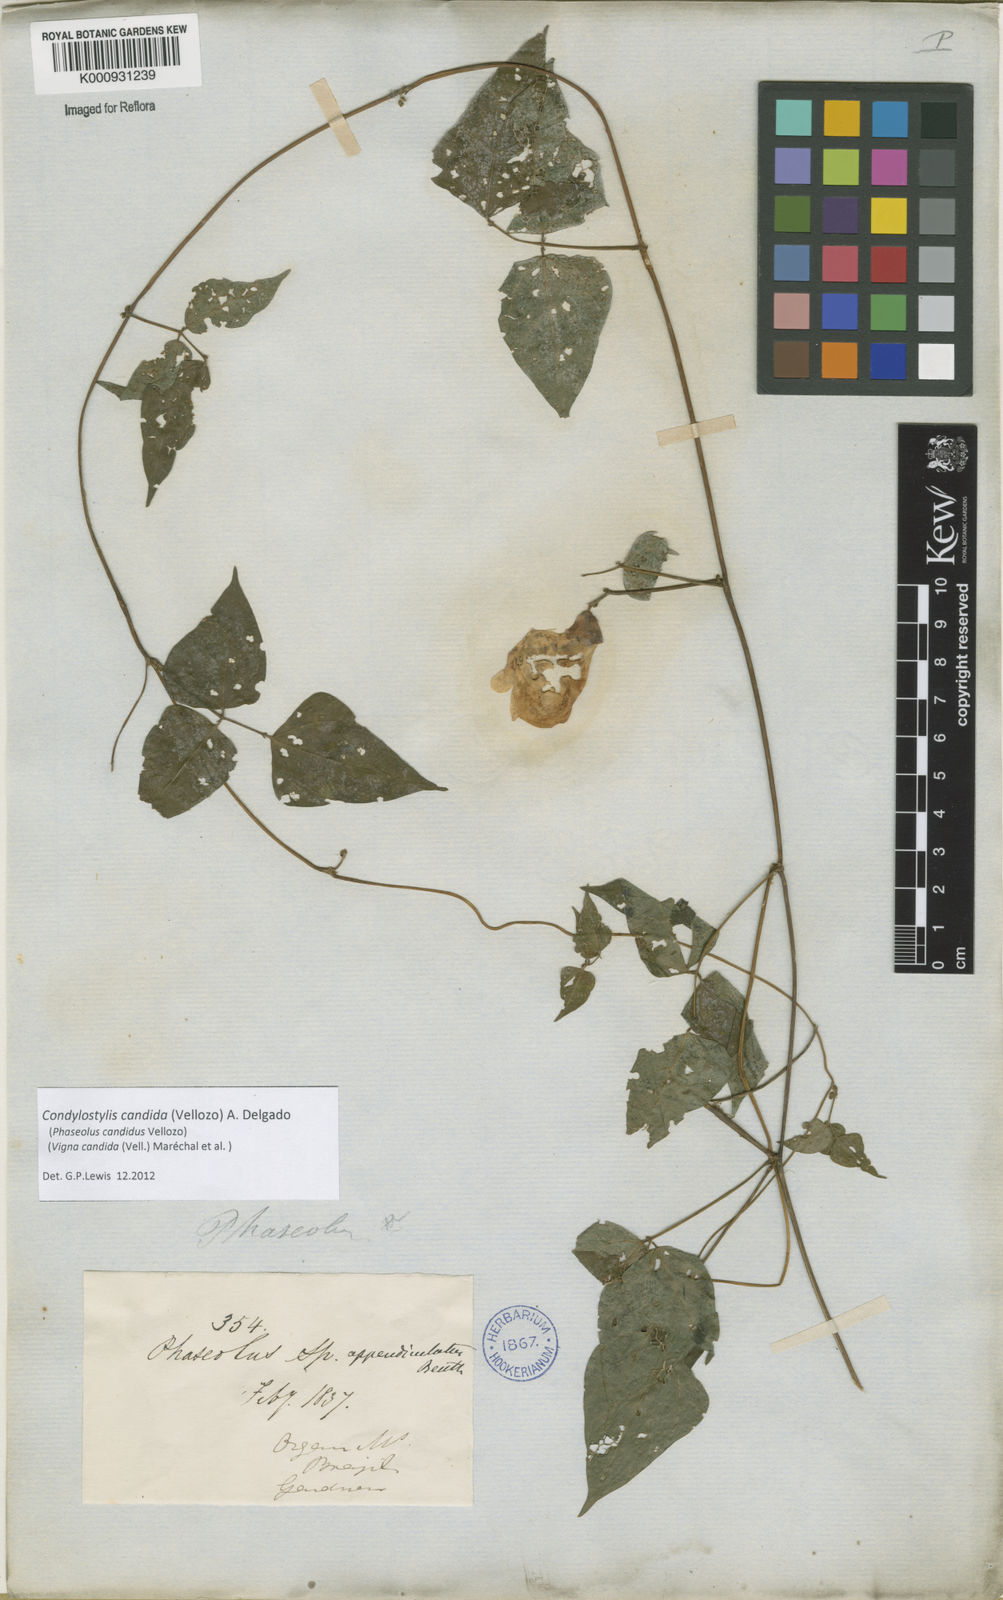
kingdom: Plantae
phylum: Tracheophyta
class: Magnoliopsida
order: Fabales
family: Fabaceae
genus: Condylostylis
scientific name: Condylostylis candida
